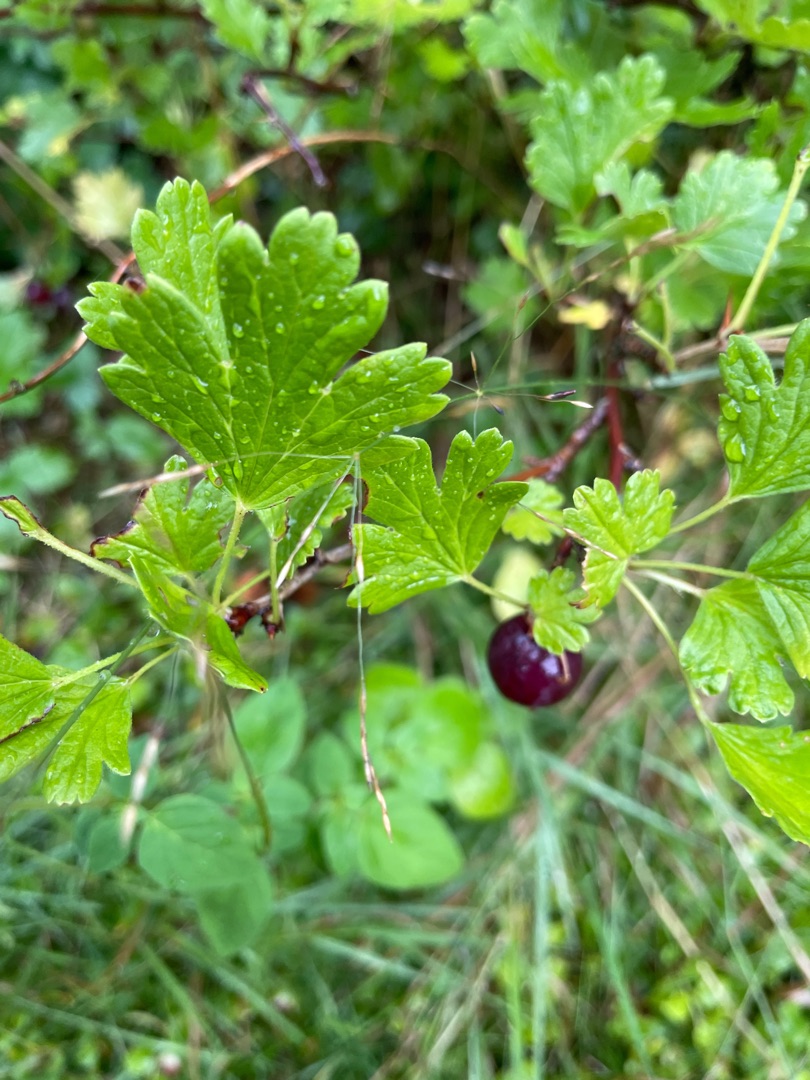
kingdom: Plantae
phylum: Tracheophyta
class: Magnoliopsida
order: Saxifragales
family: Grossulariaceae
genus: Ribes
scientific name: Ribes uva-crispa
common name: Stikkelsbær
